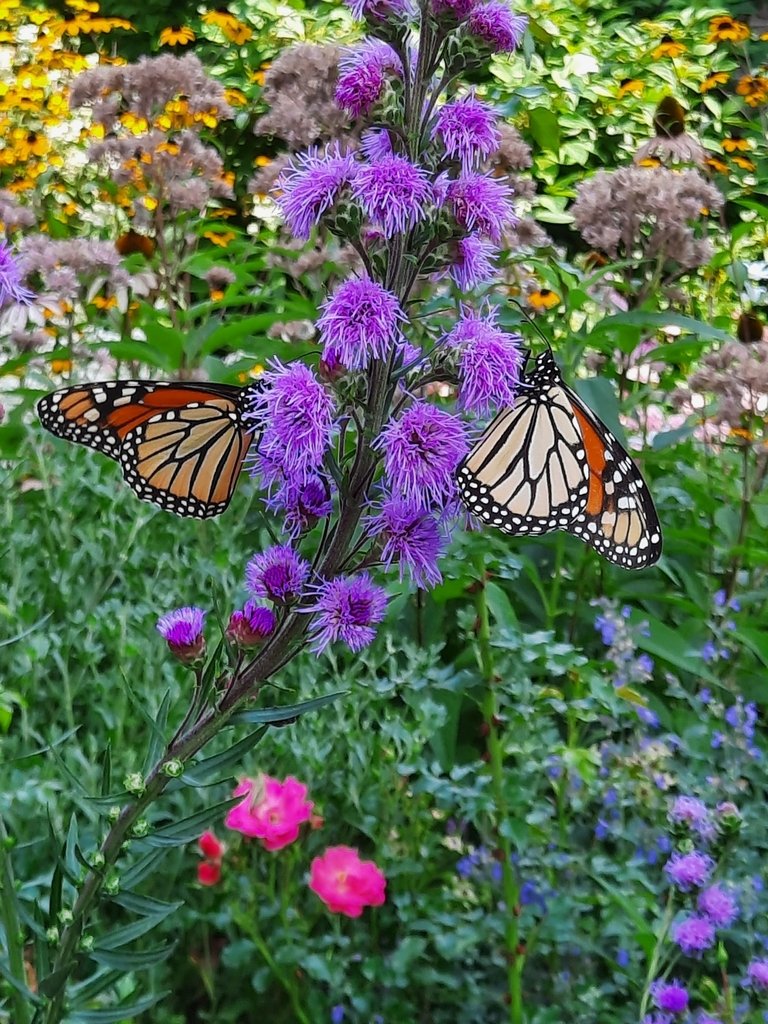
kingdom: Animalia
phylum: Arthropoda
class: Insecta
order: Lepidoptera
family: Nymphalidae
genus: Danaus
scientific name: Danaus plexippus
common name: Monarch
